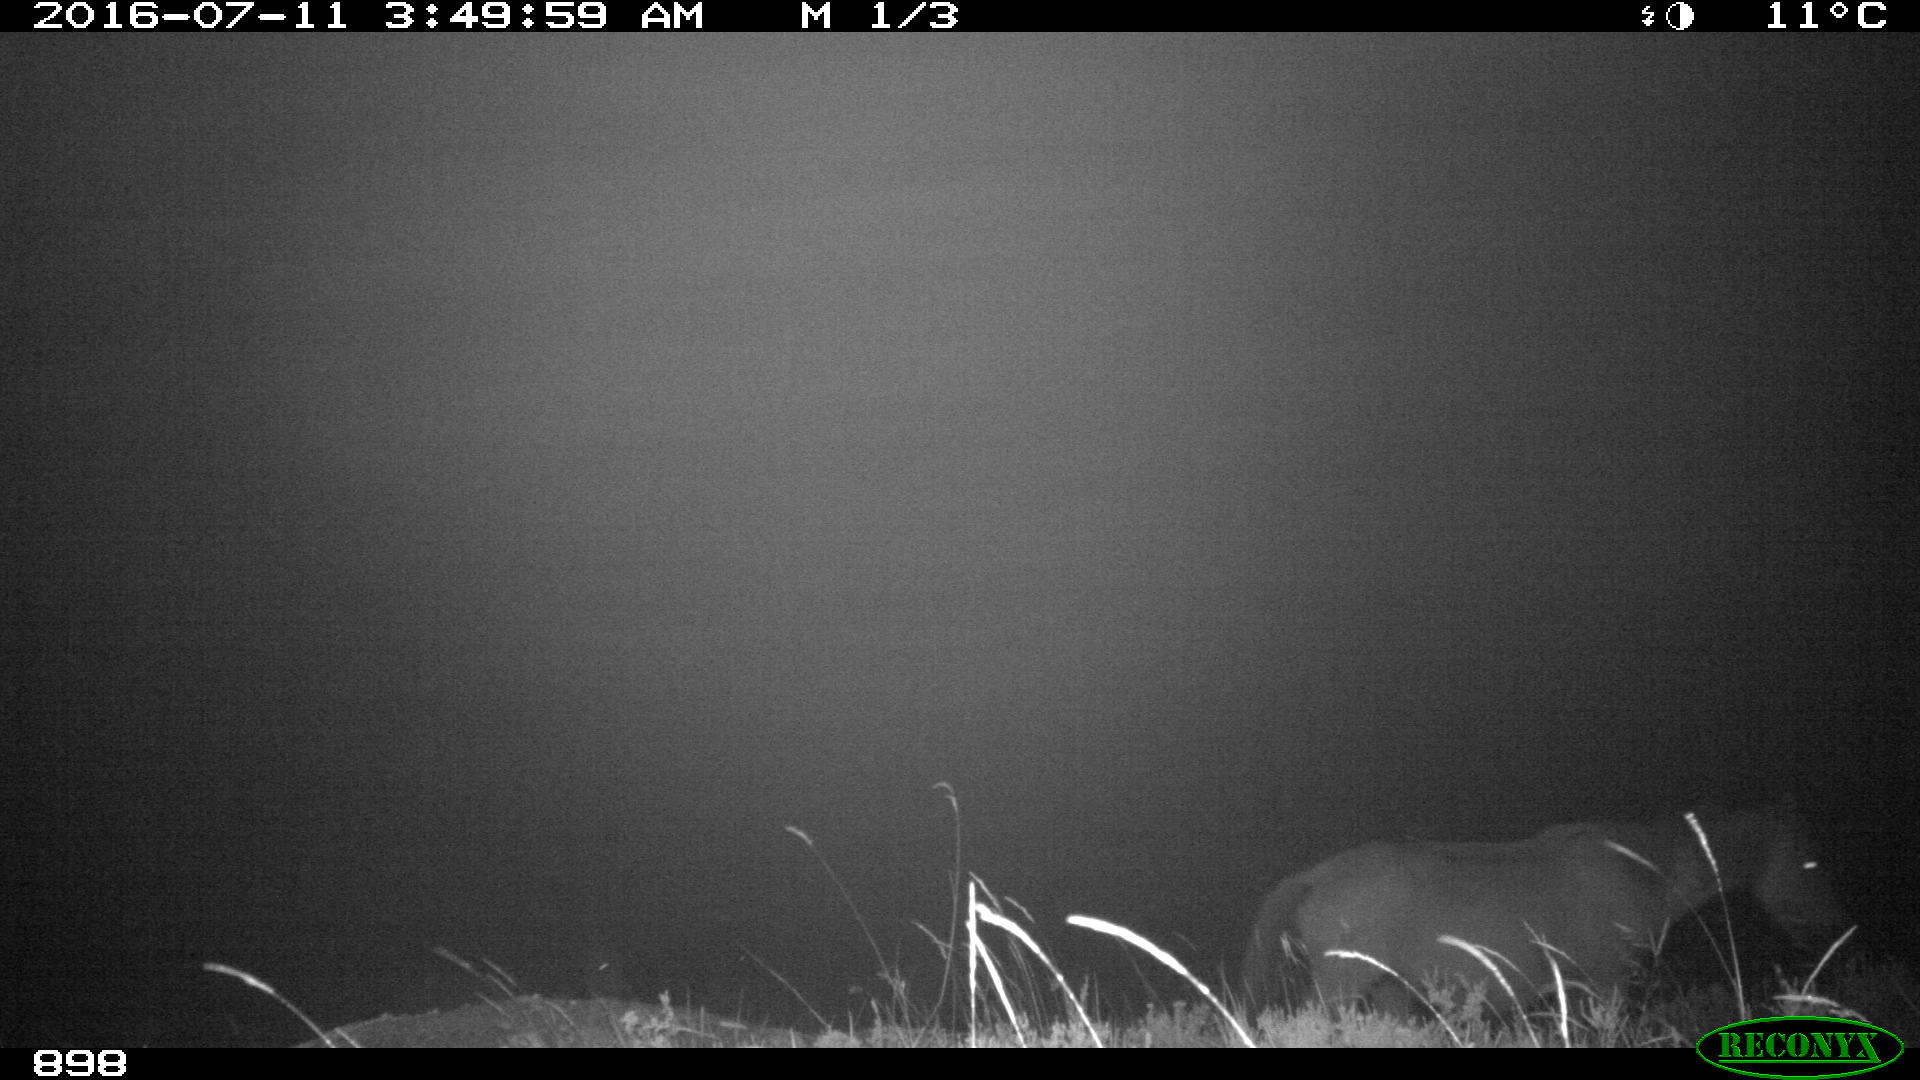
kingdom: Animalia
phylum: Chordata
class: Mammalia
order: Perissodactyla
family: Equidae
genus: Equus
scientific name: Equus caballus
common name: Horse
